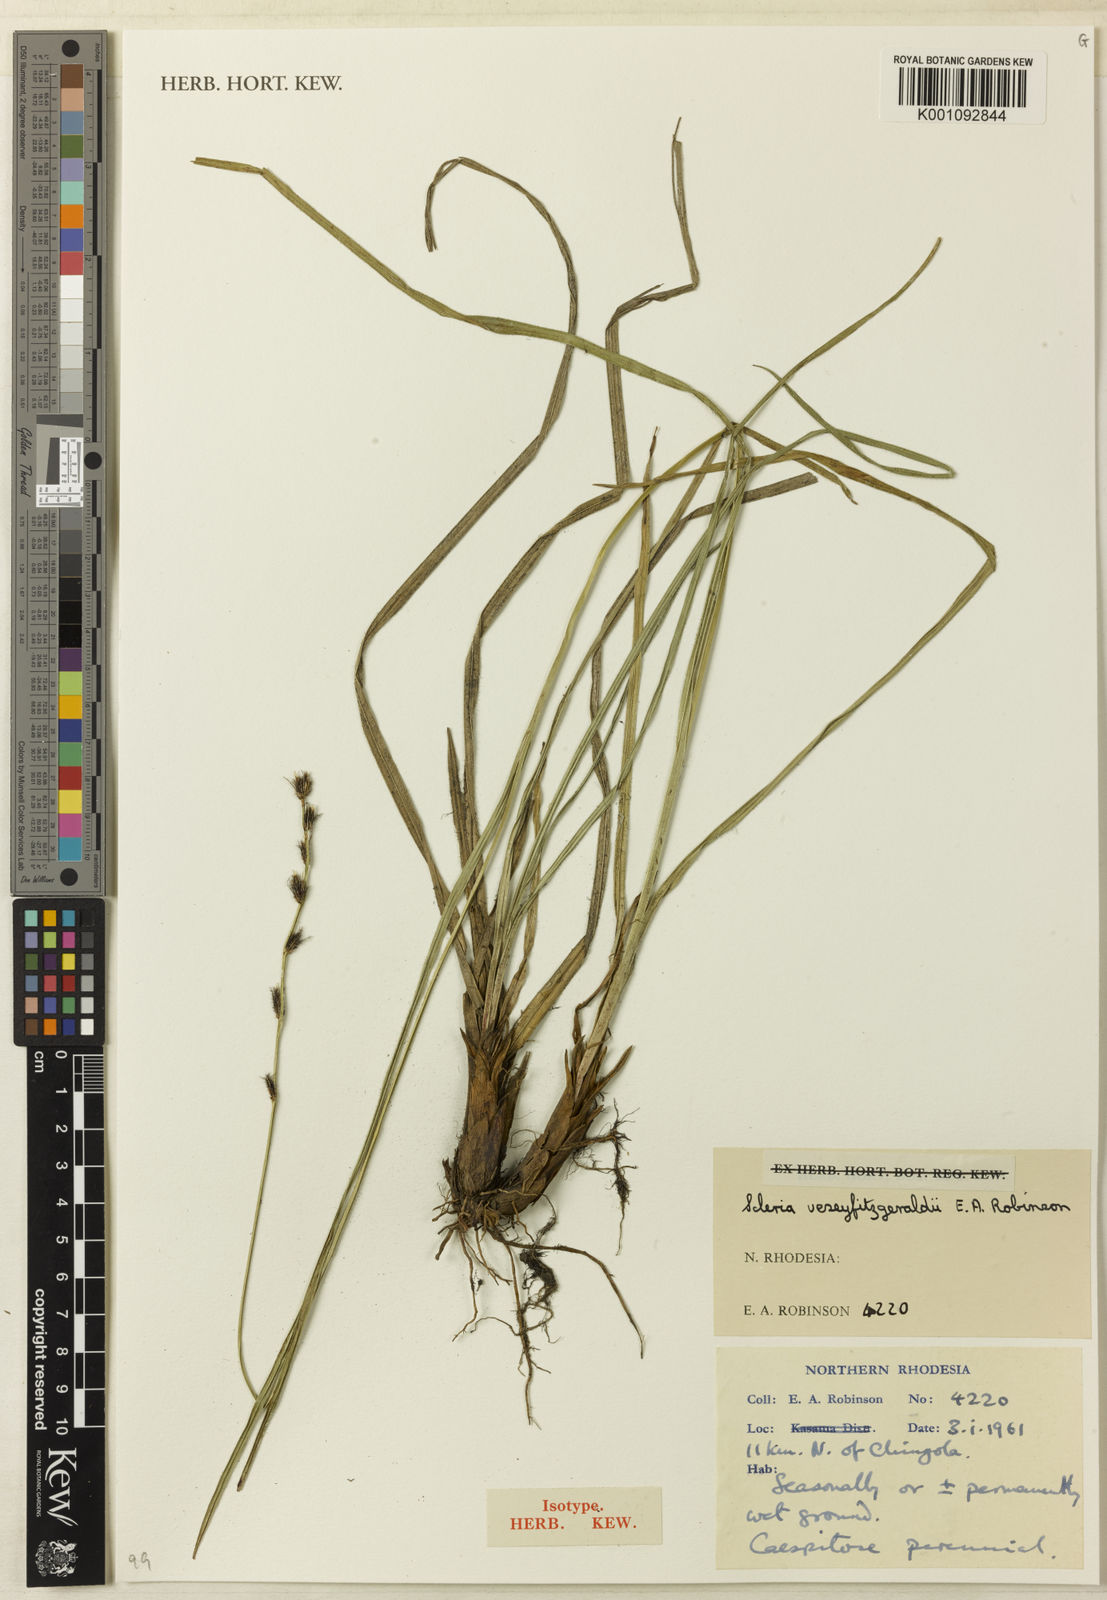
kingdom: Plantae
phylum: Tracheophyta
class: Liliopsida
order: Poales
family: Cyperaceae
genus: Scleria
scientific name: Scleria veseyfitzgeraldii
